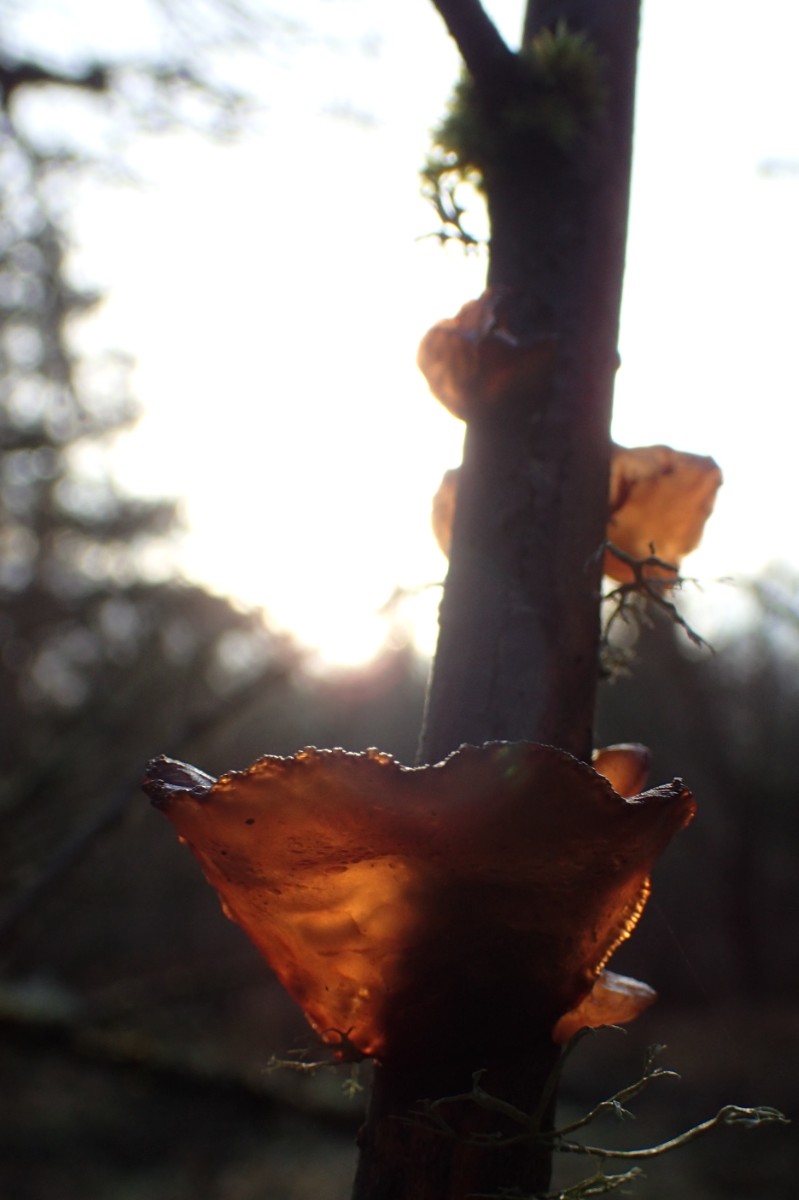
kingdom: Fungi
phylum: Basidiomycota
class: Agaricomycetes
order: Auriculariales
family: Auriculariaceae
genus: Exidia
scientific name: Exidia recisa
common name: pile-bævretop
